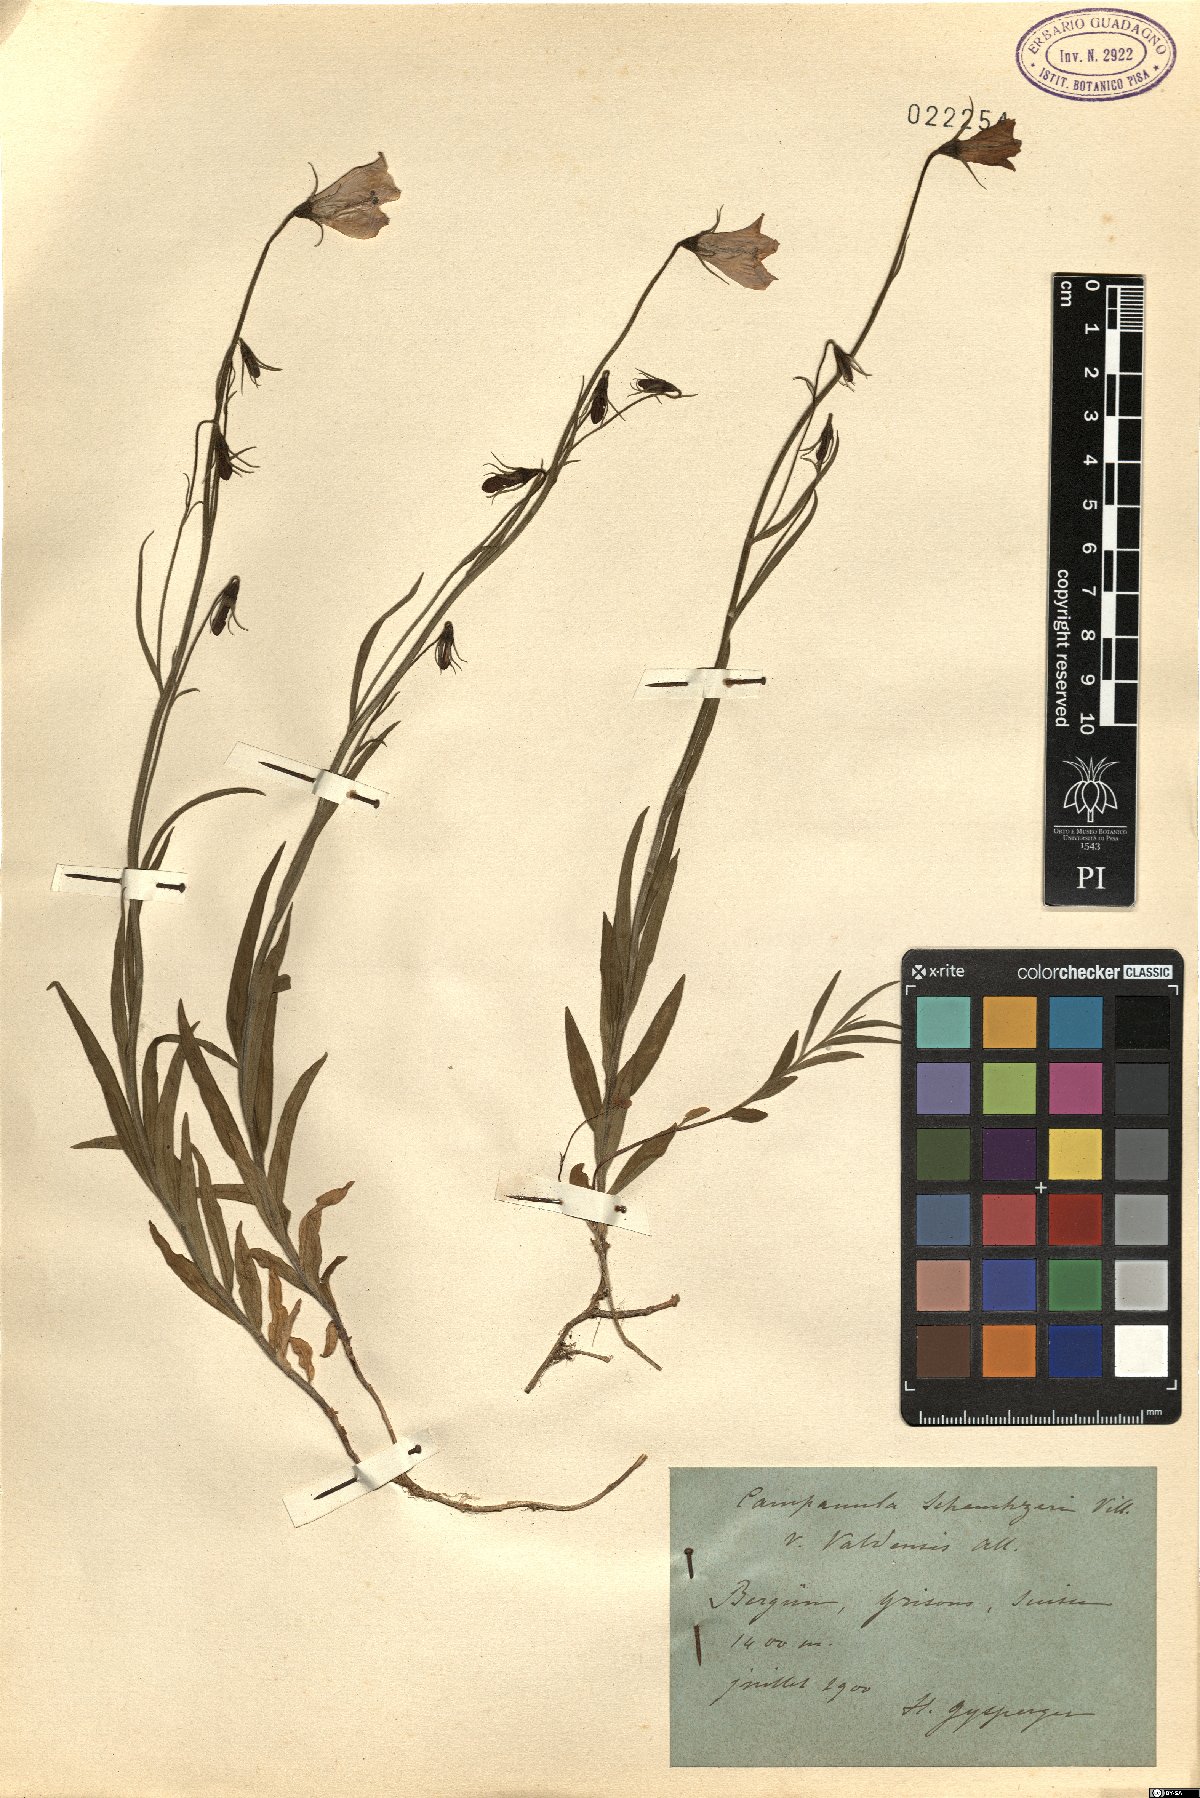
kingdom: Plantae
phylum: Tracheophyta
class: Magnoliopsida
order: Asterales
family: Campanulaceae
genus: Campanula
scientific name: Campanula scheuchzeri
